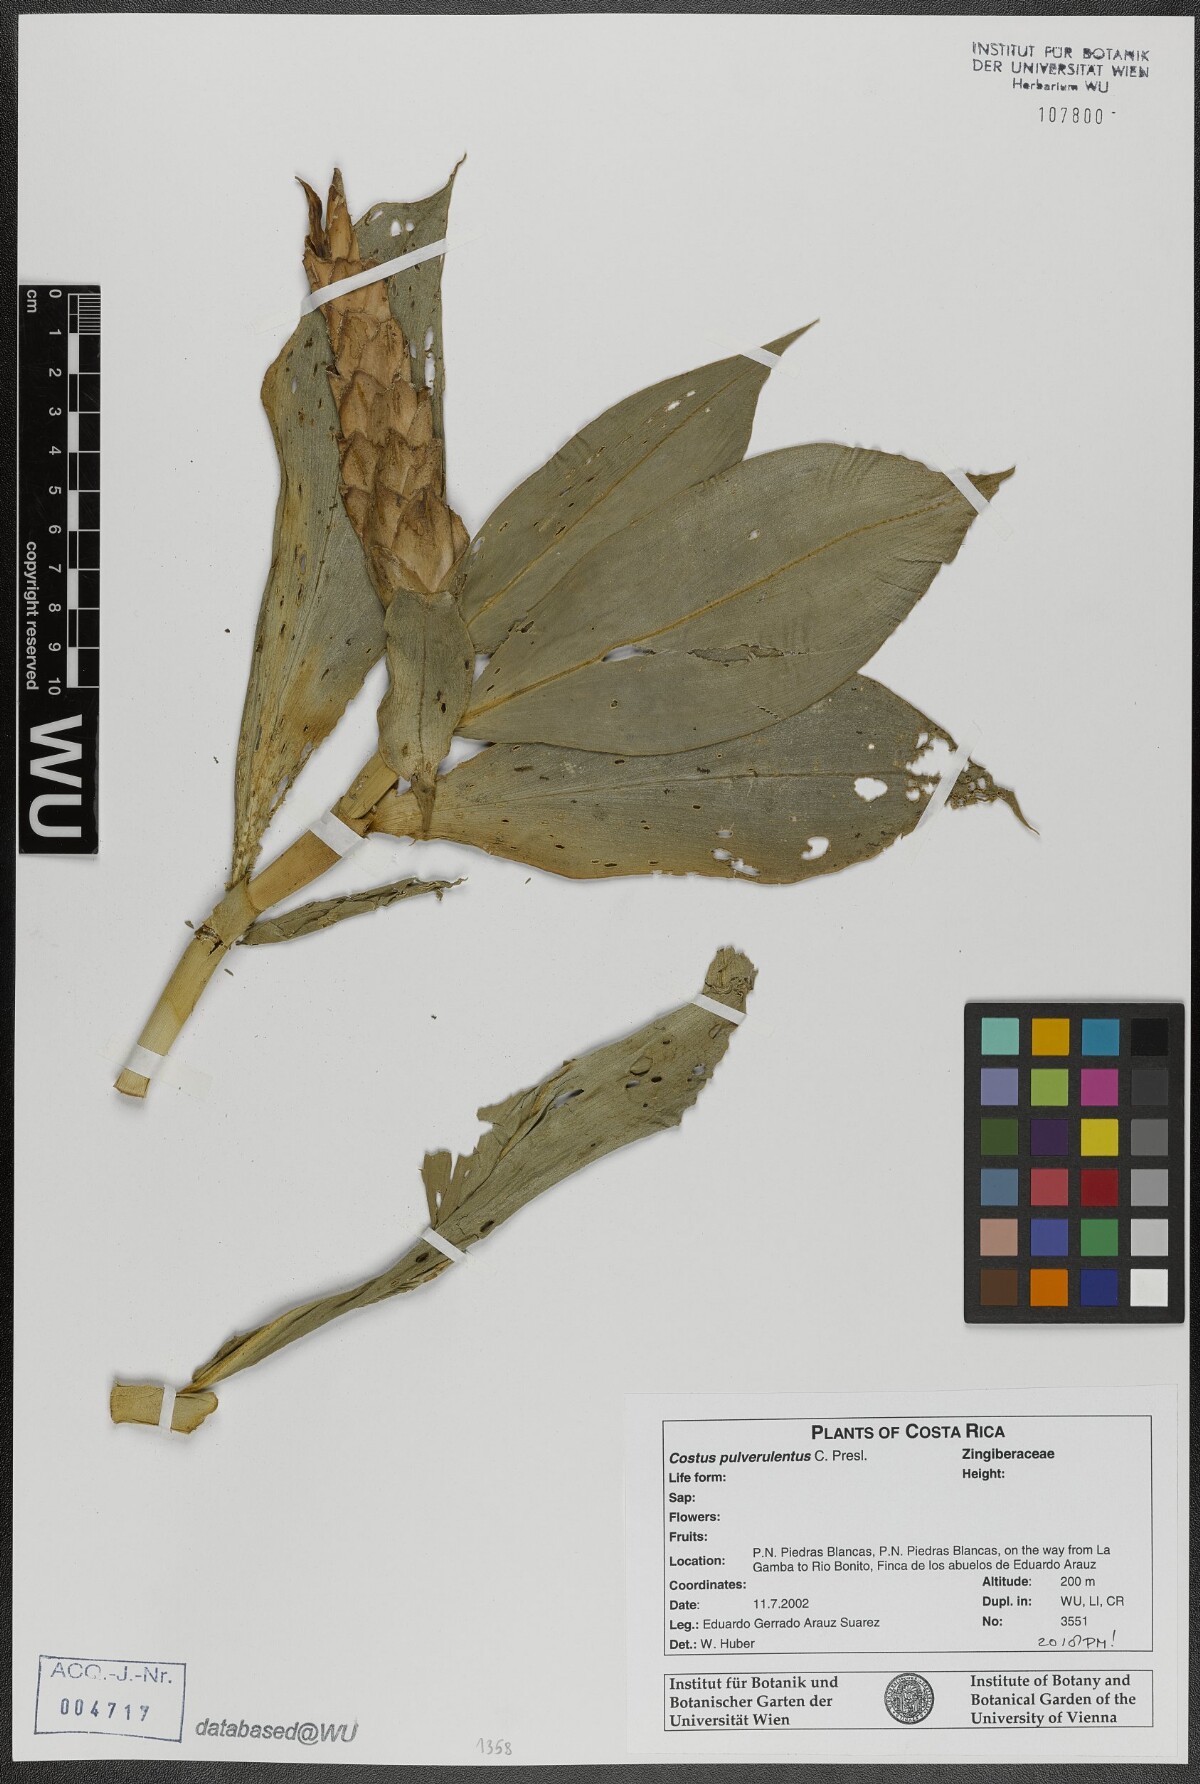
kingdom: Plantae
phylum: Tracheophyta
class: Liliopsida
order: Zingiberales
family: Costaceae
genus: Costus
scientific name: Costus pulverulentus
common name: Spiral ginger
